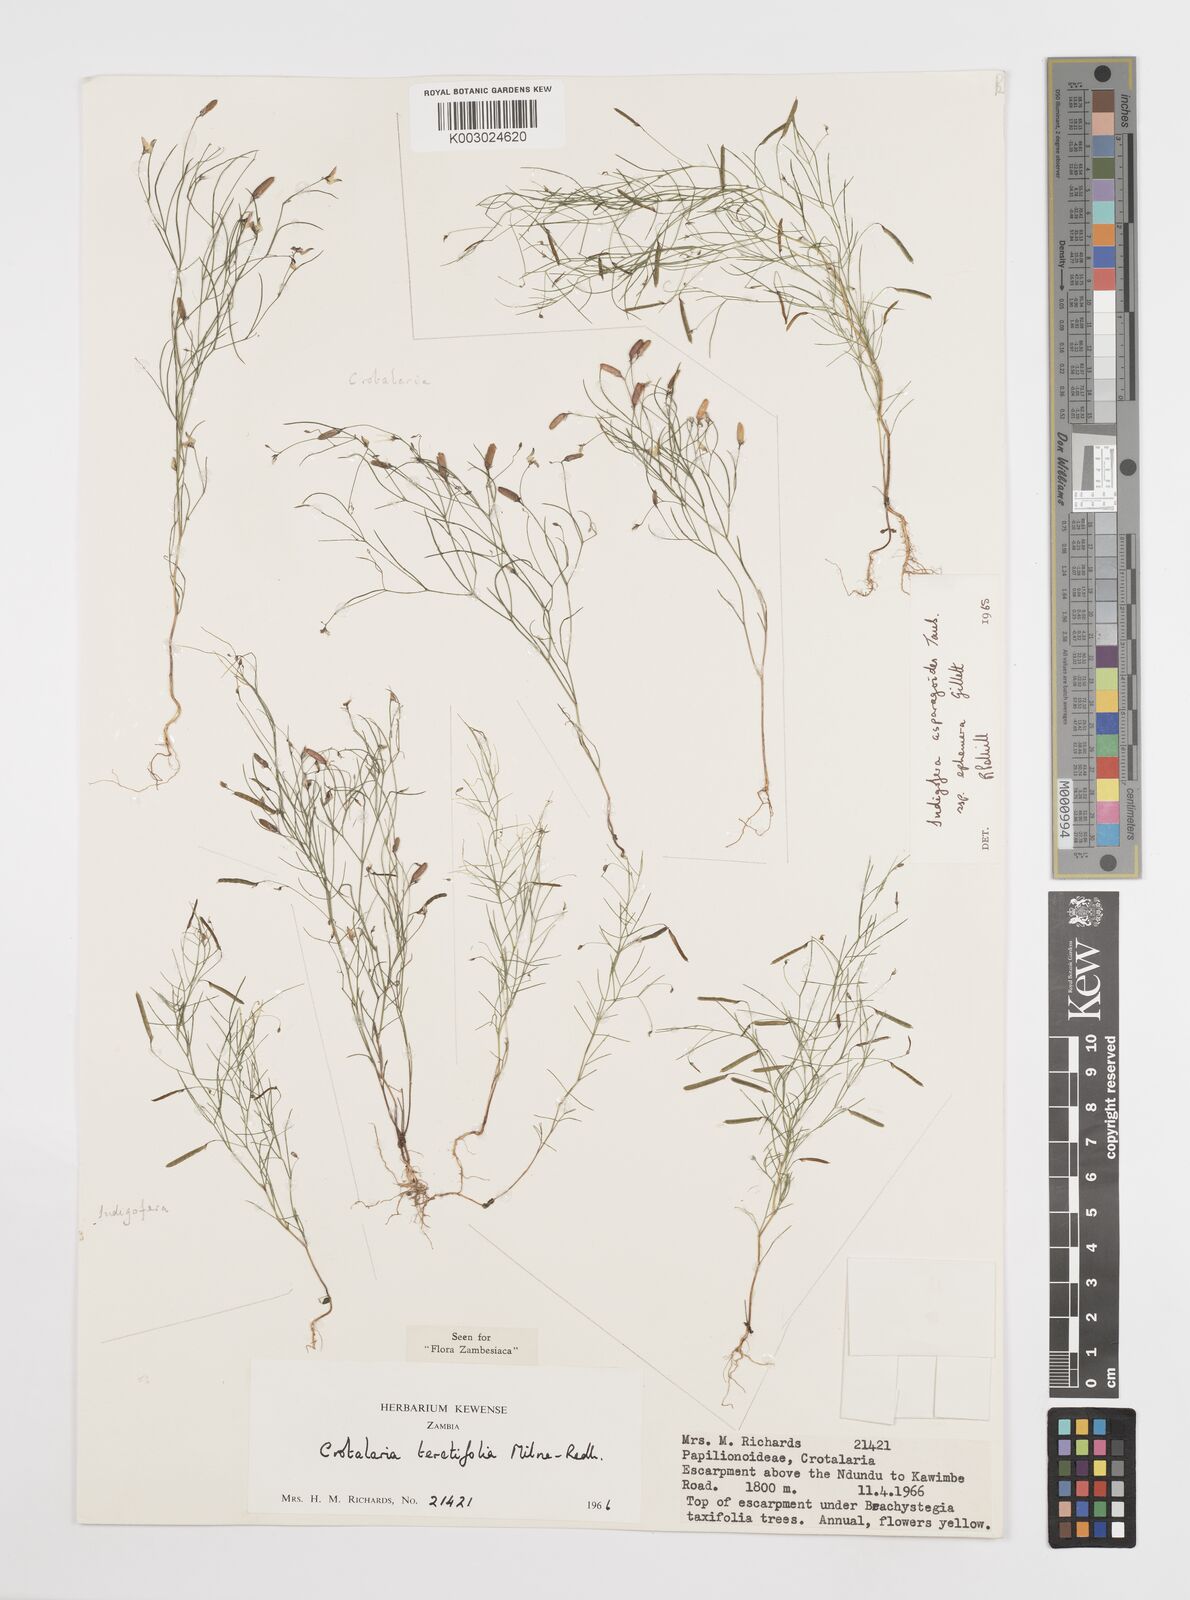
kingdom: Plantae
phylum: Tracheophyta
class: Magnoliopsida
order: Fabales
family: Fabaceae
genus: Crotalaria
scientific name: Crotalaria teretifolia
